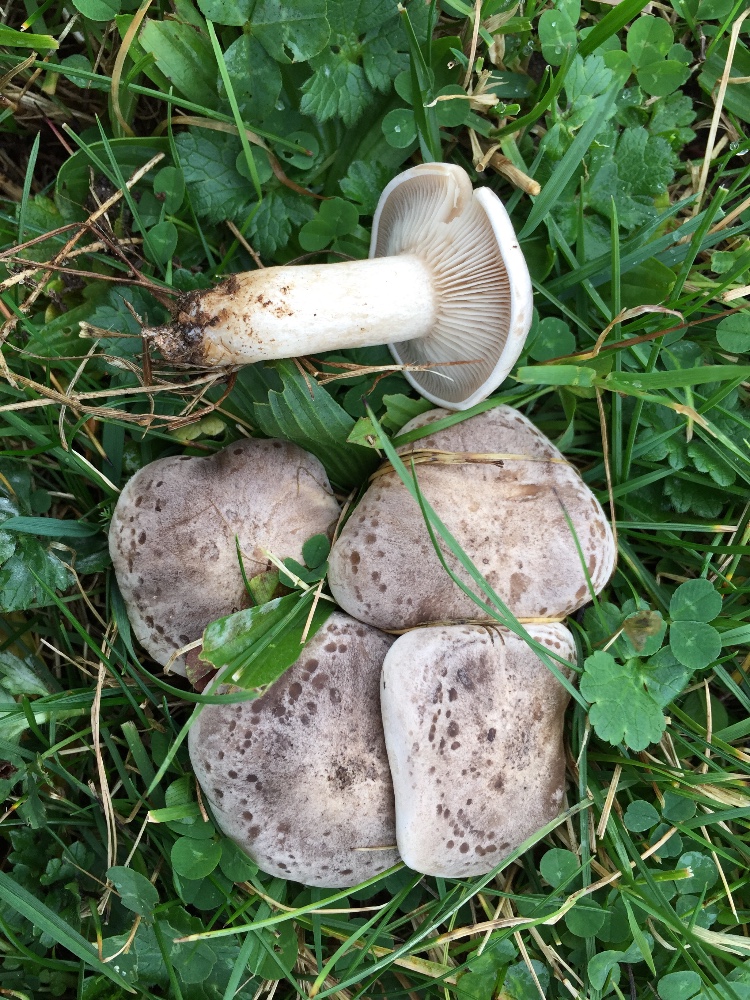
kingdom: Fungi
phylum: Basidiomycota
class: Agaricomycetes
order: Agaricales
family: Tricholomataceae
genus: Lepista
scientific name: Lepista panaeolus
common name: marmoreret hekseringshat
